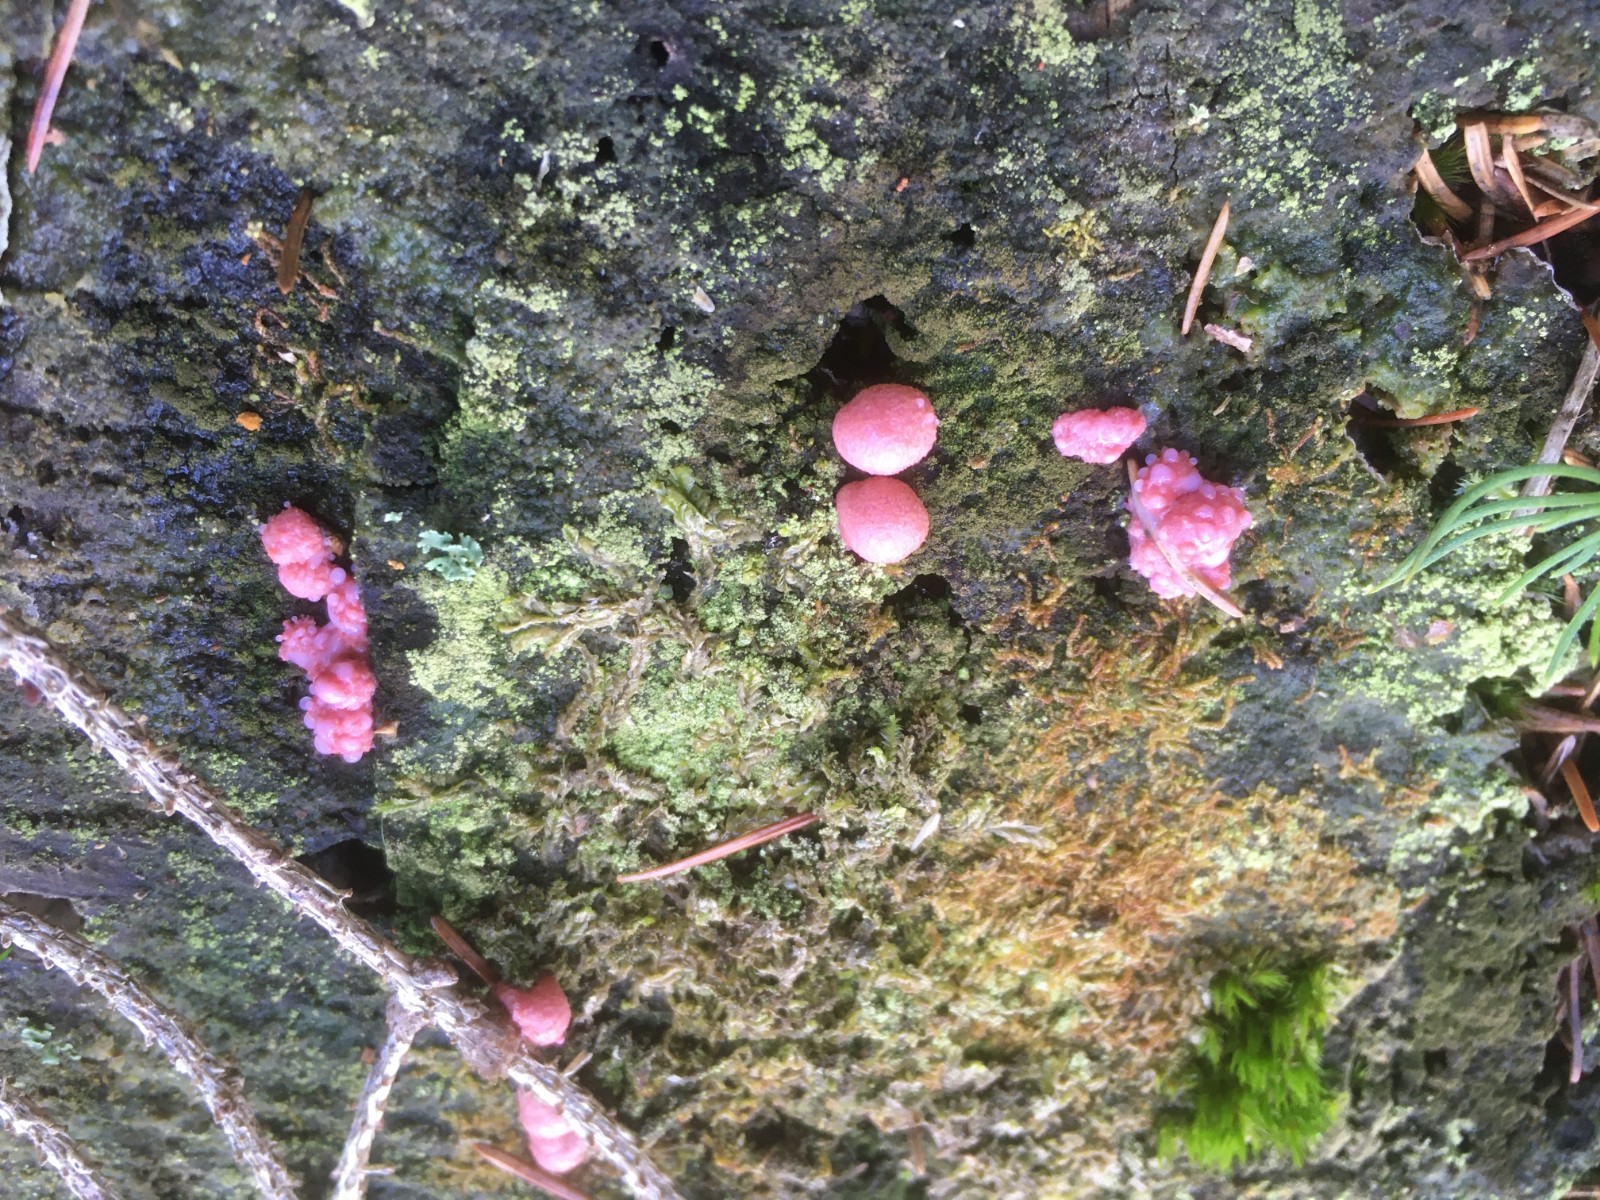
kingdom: Protozoa
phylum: Mycetozoa
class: Myxomycetes
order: Cribrariales
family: Tubiferaceae
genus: Lycogala
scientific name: Lycogala epidendrum
